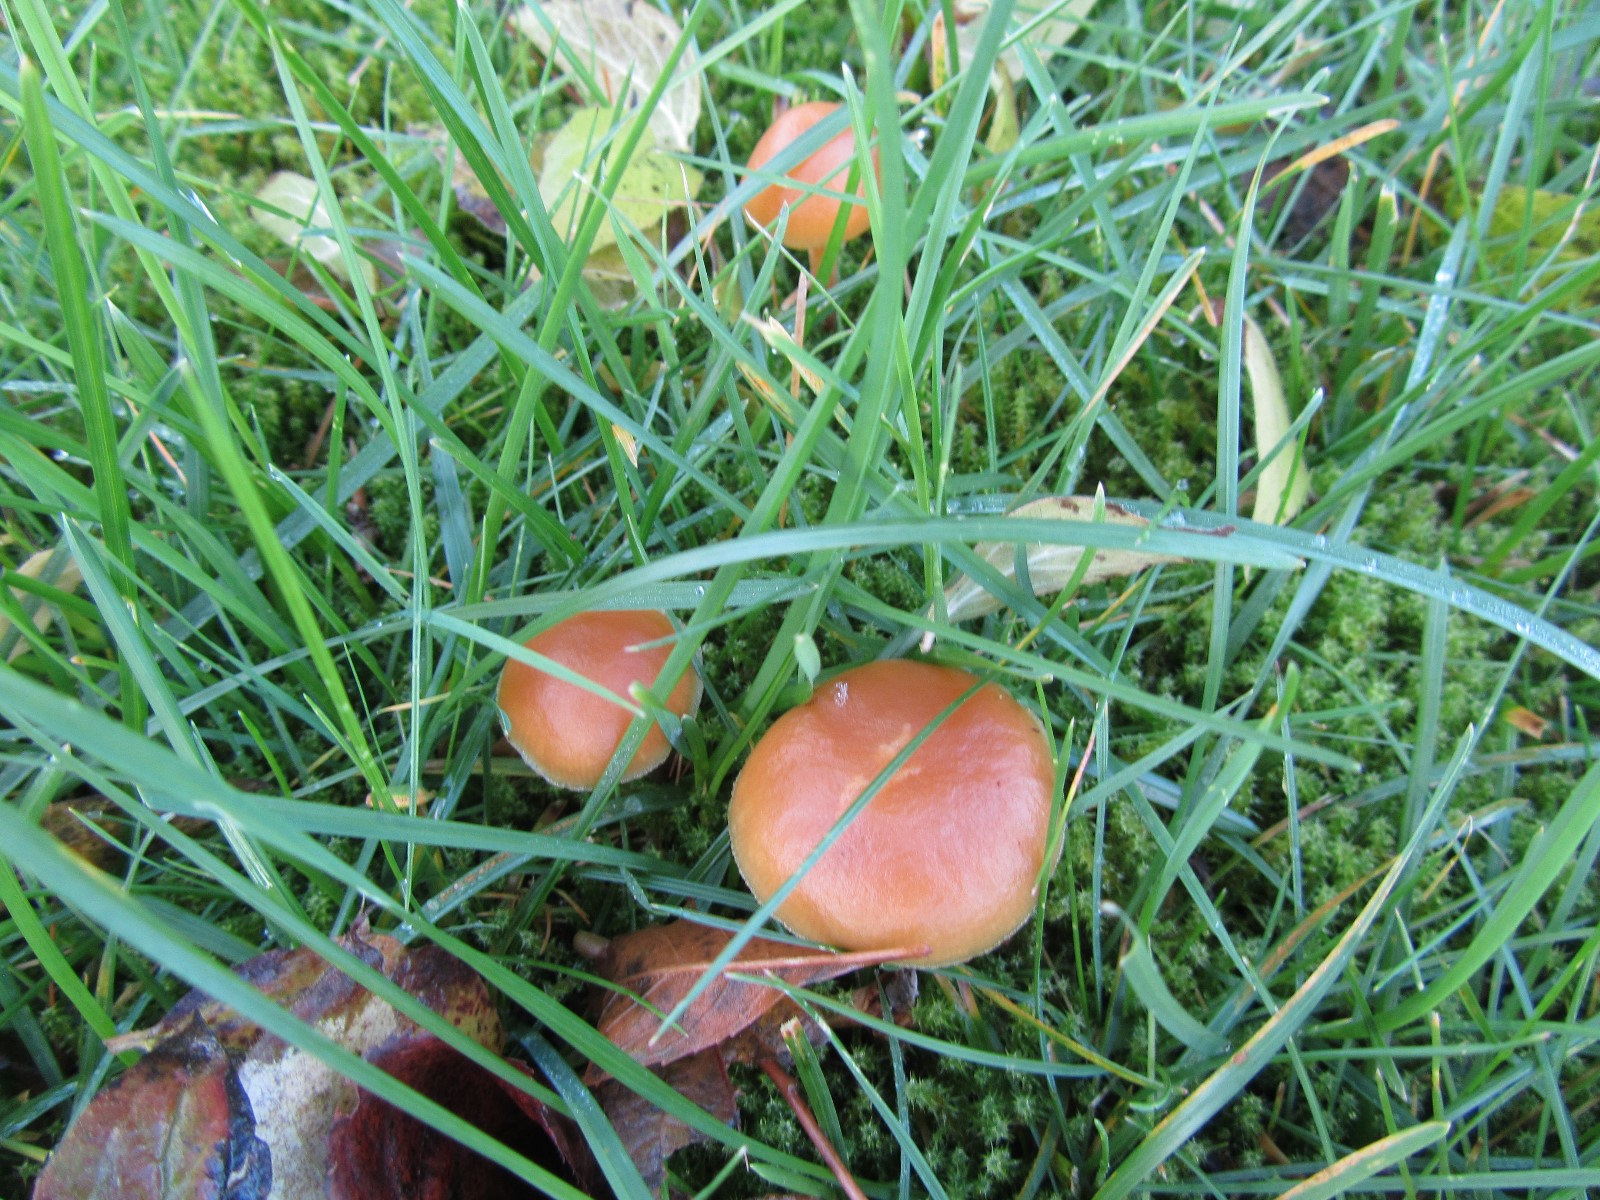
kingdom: Fungi
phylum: Basidiomycota
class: Agaricomycetes
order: Agaricales
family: Hymenogastraceae
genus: Galerina
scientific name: Galerina marginata
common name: randbæltet hjelmhat
